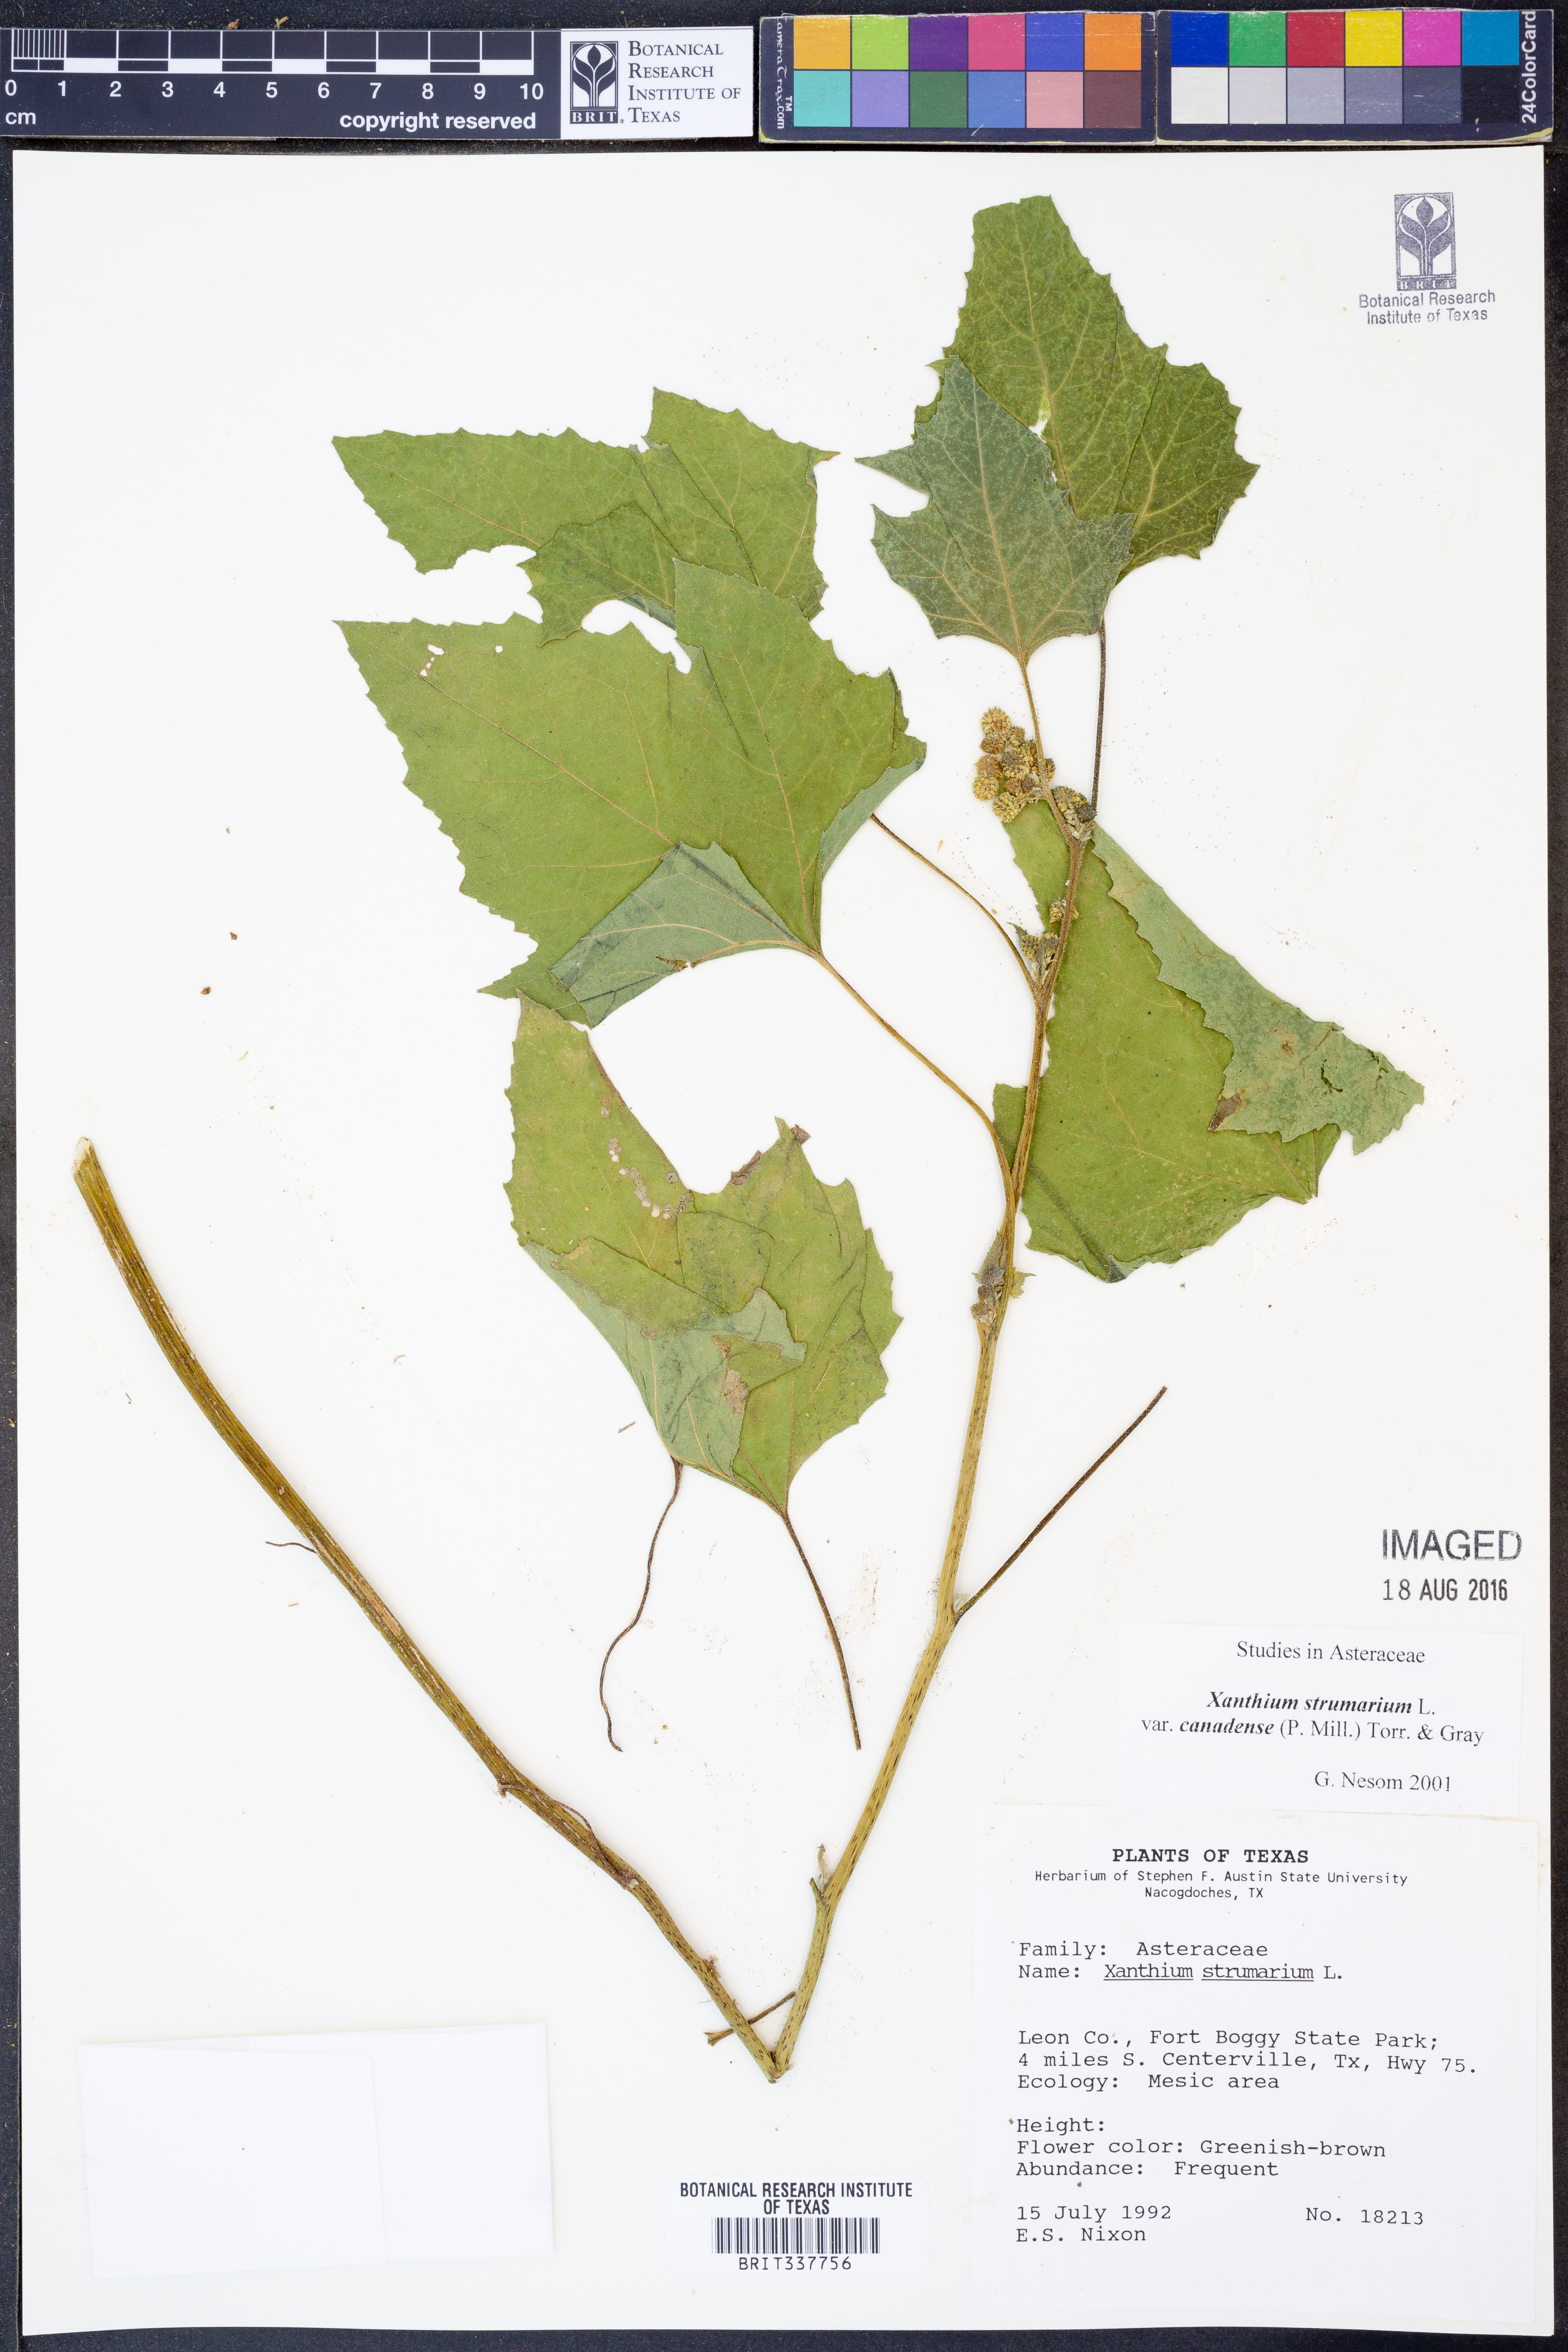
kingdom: Plantae
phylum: Tracheophyta
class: Magnoliopsida
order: Asterales
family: Asteraceae
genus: Xanthium
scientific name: Xanthium orientale
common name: Californian burr
